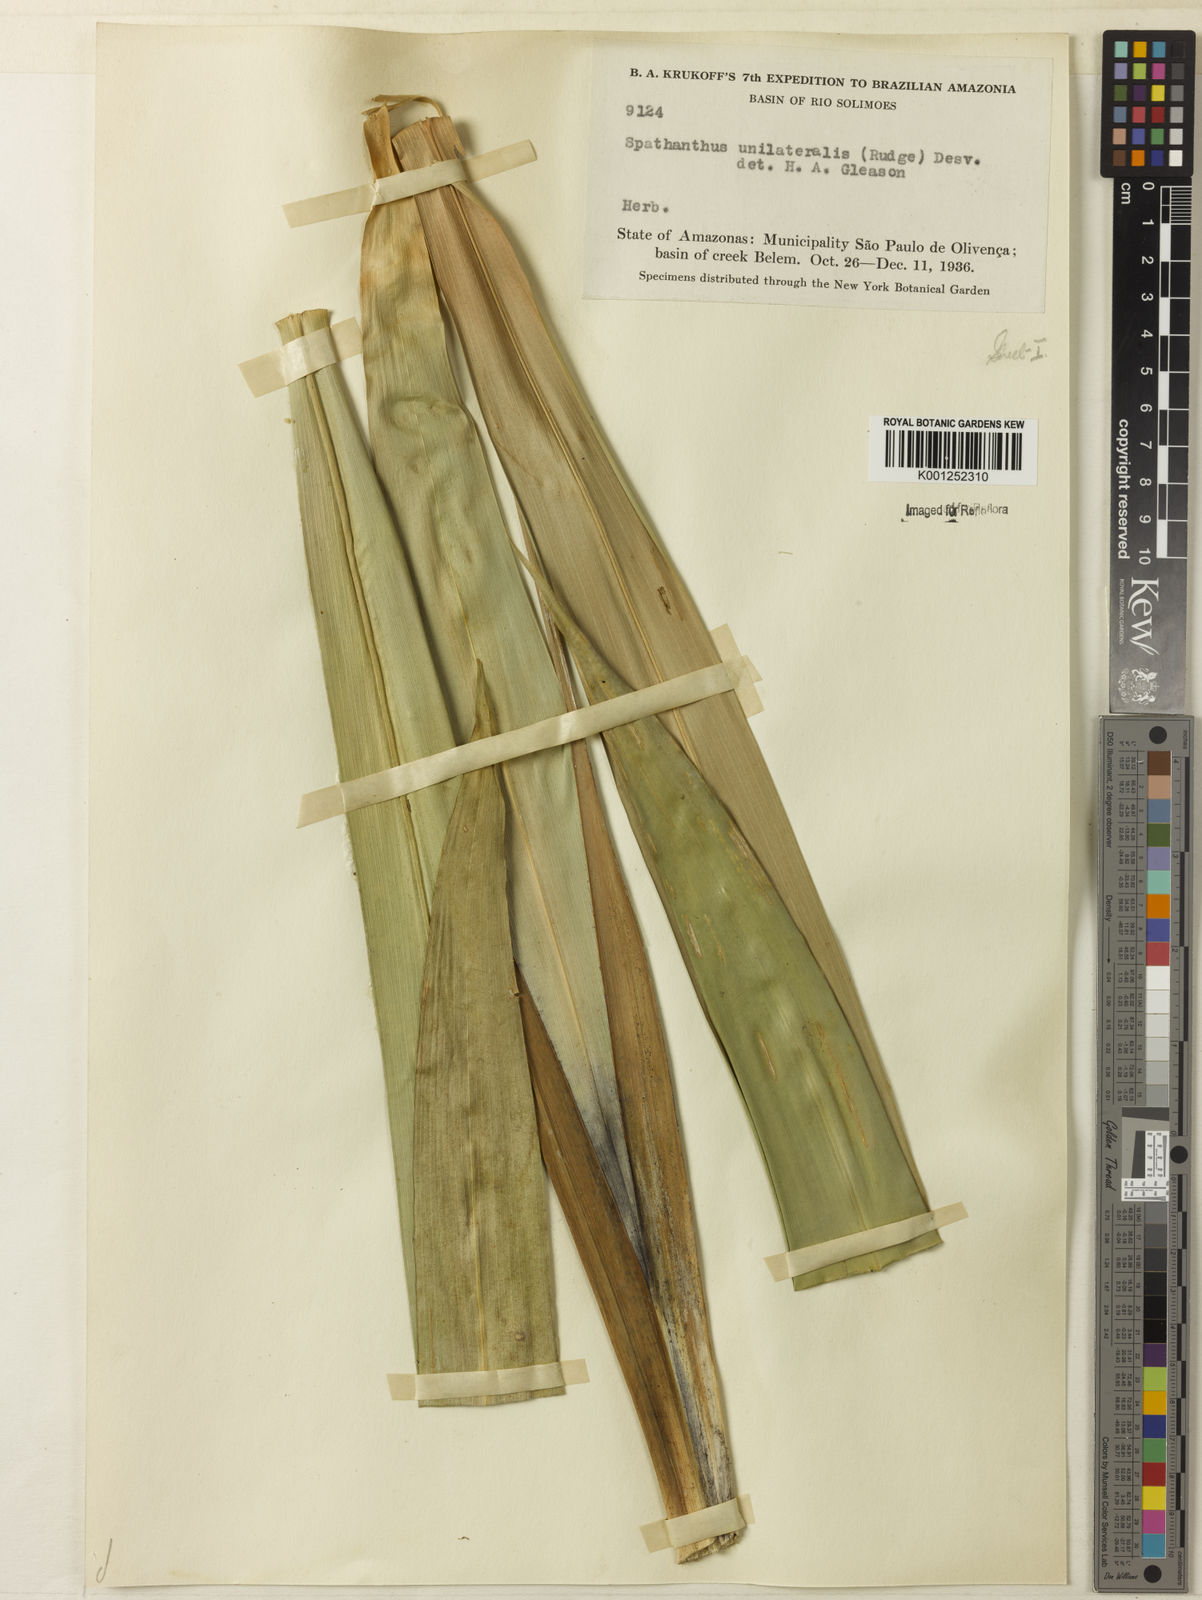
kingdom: Plantae
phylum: Tracheophyta
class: Liliopsida
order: Poales
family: Rapateaceae
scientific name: Rapateaceae
